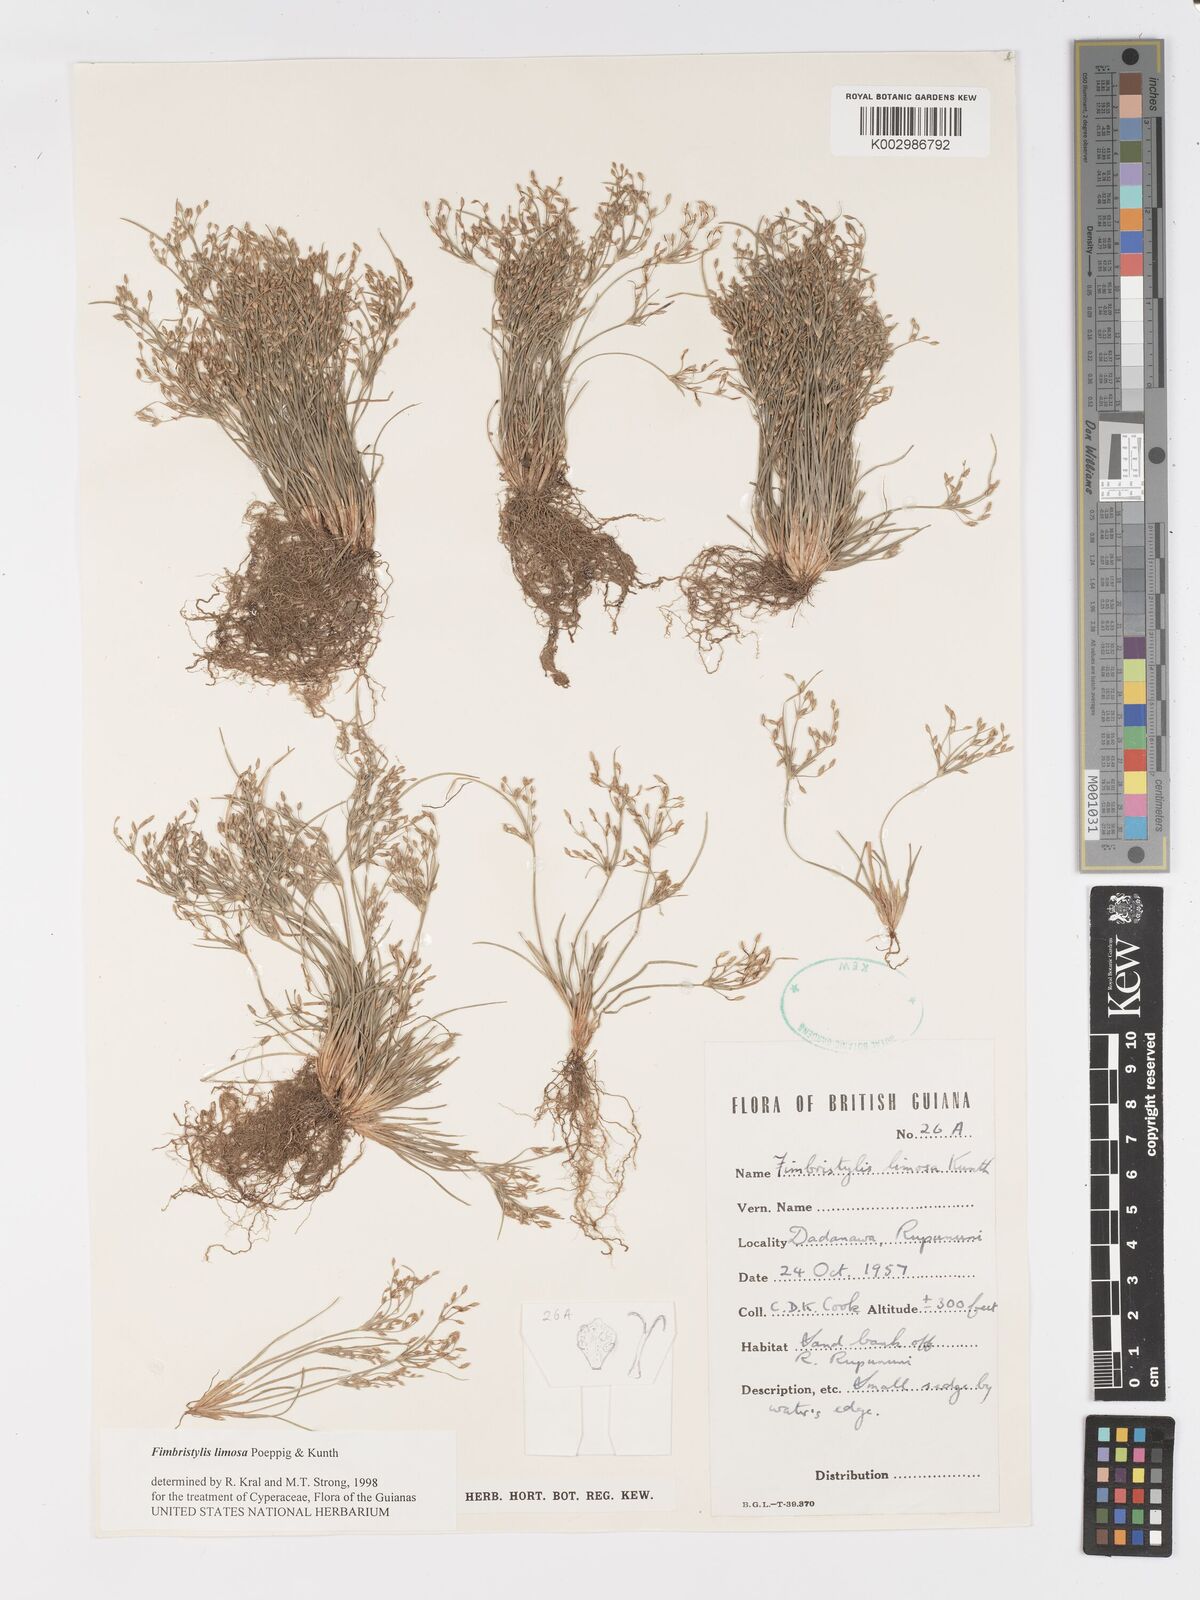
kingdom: Plantae
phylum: Tracheophyta
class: Liliopsida
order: Poales
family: Cyperaceae
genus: Fimbristylis
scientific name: Fimbristylis limosa
